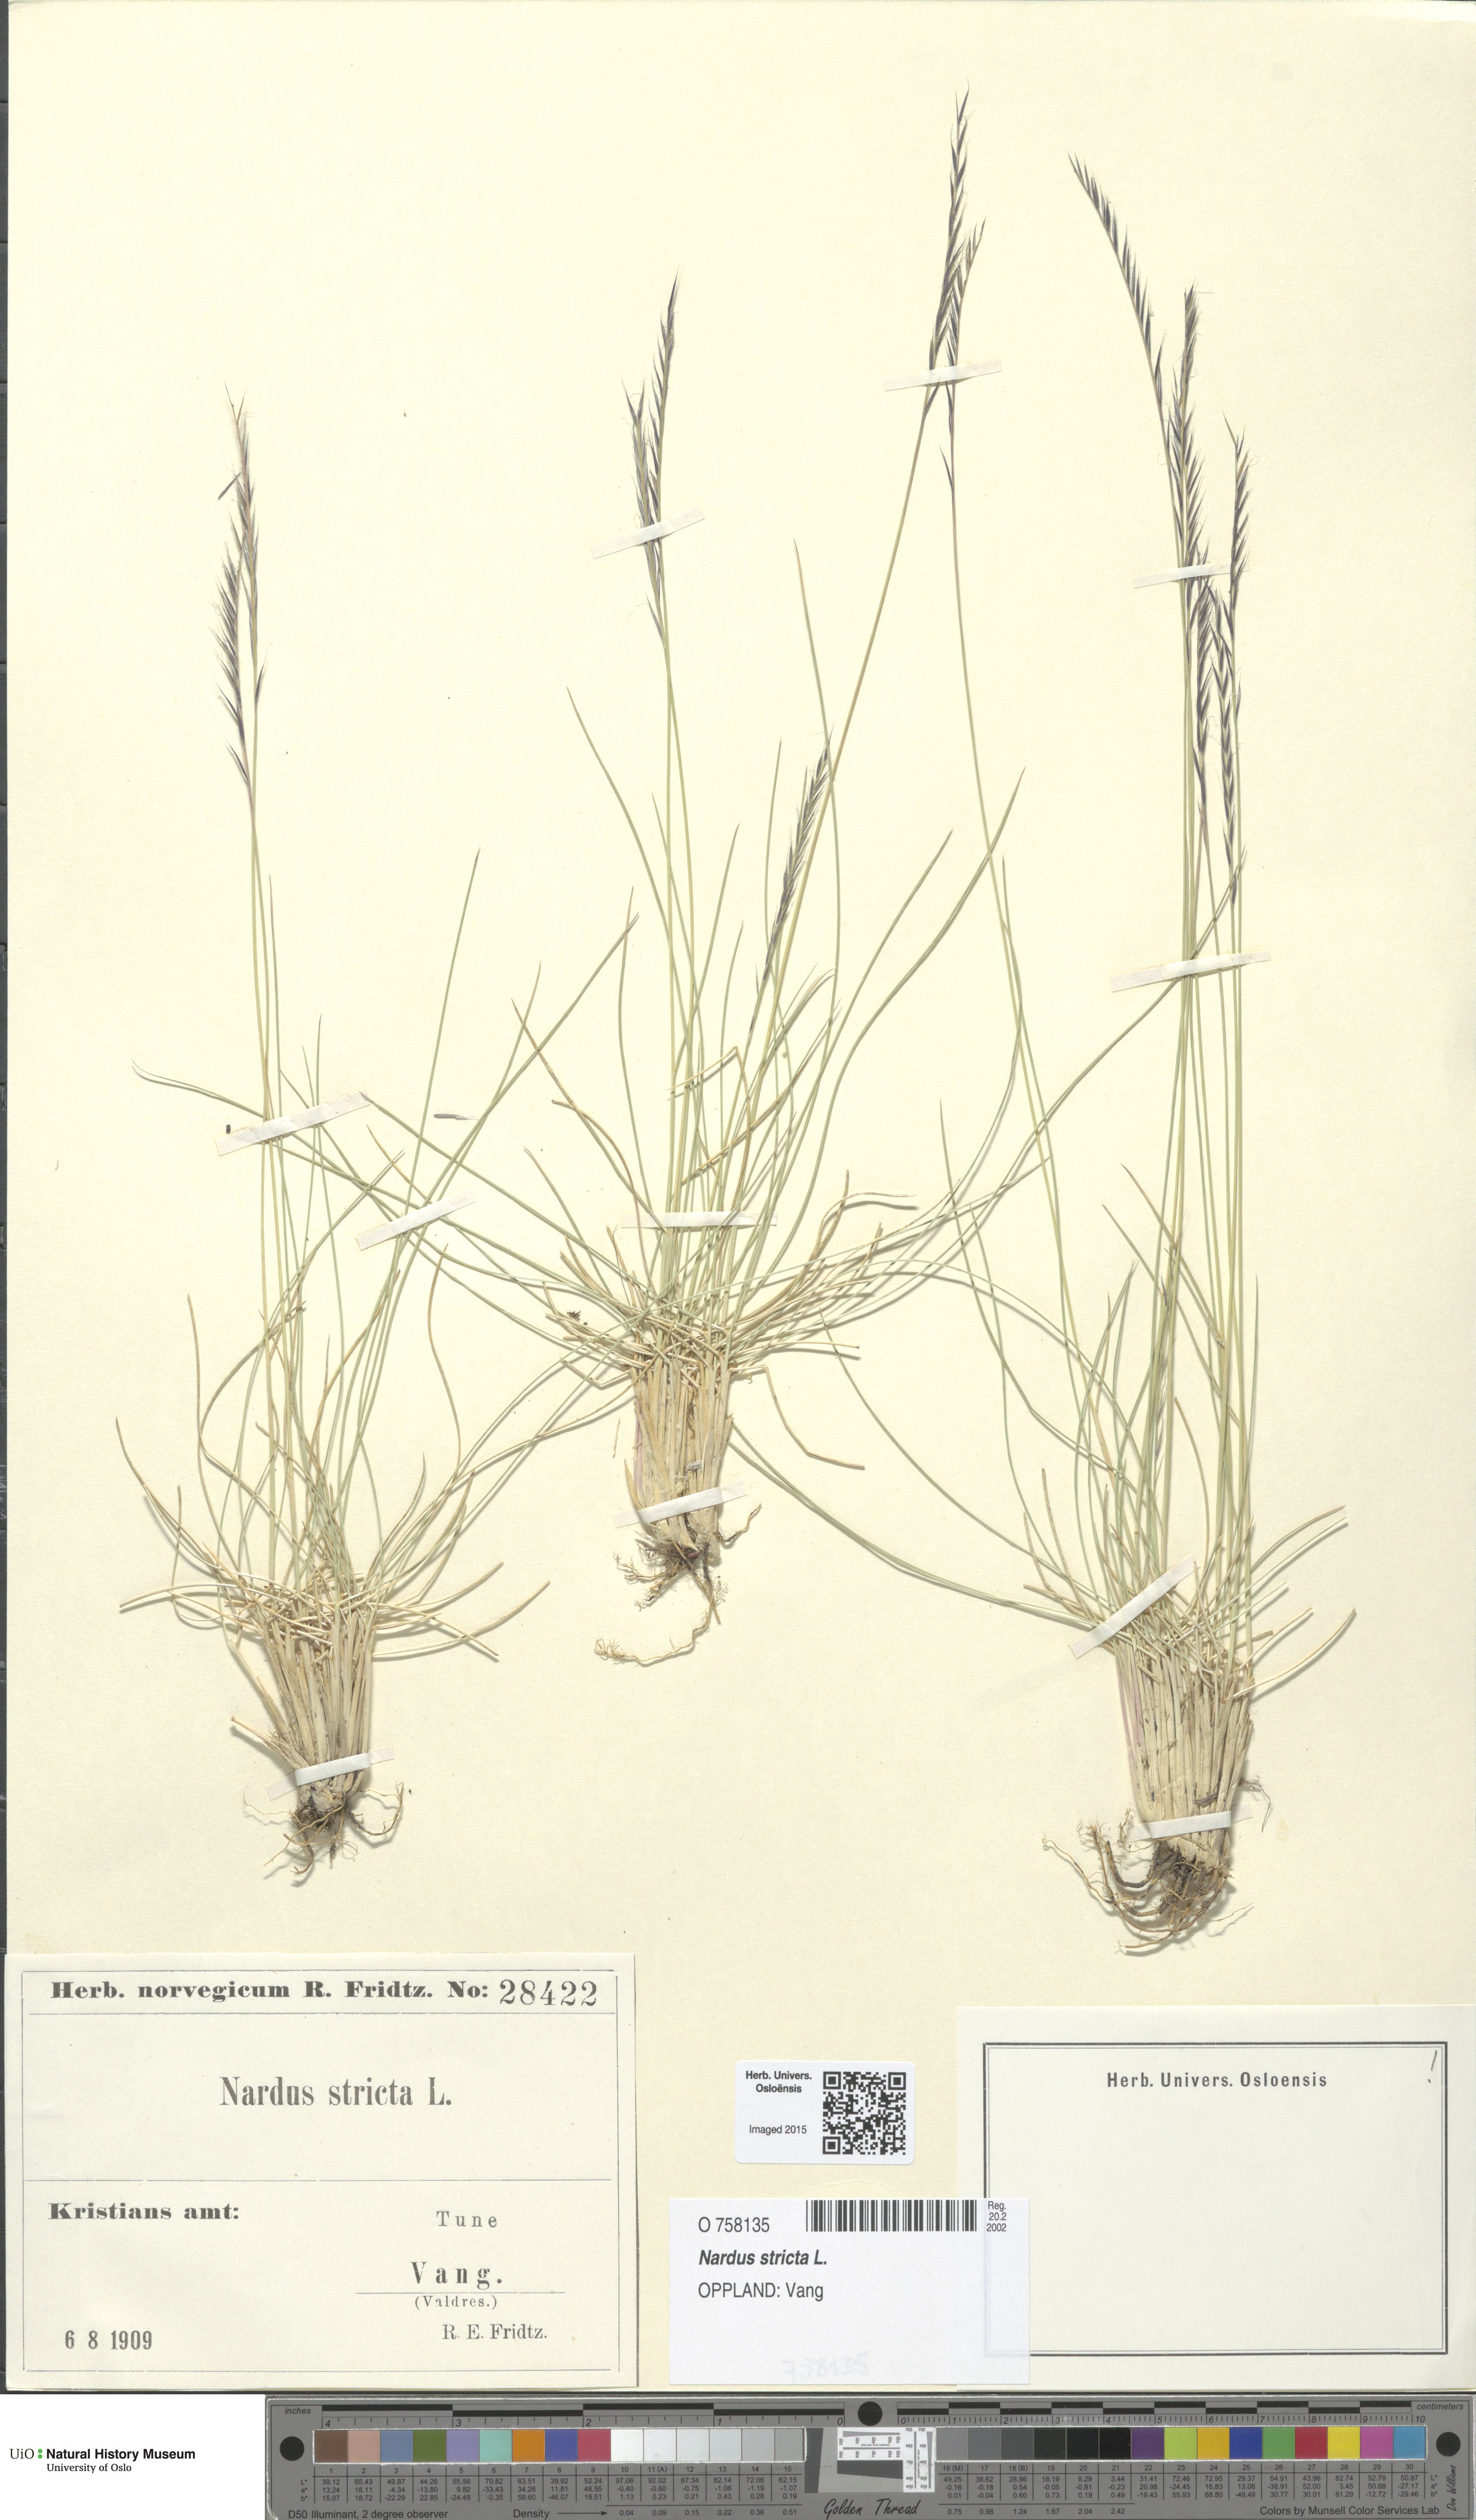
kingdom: Plantae
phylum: Tracheophyta
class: Liliopsida
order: Poales
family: Poaceae
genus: Nardus
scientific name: Nardus stricta
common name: Mat-grass
